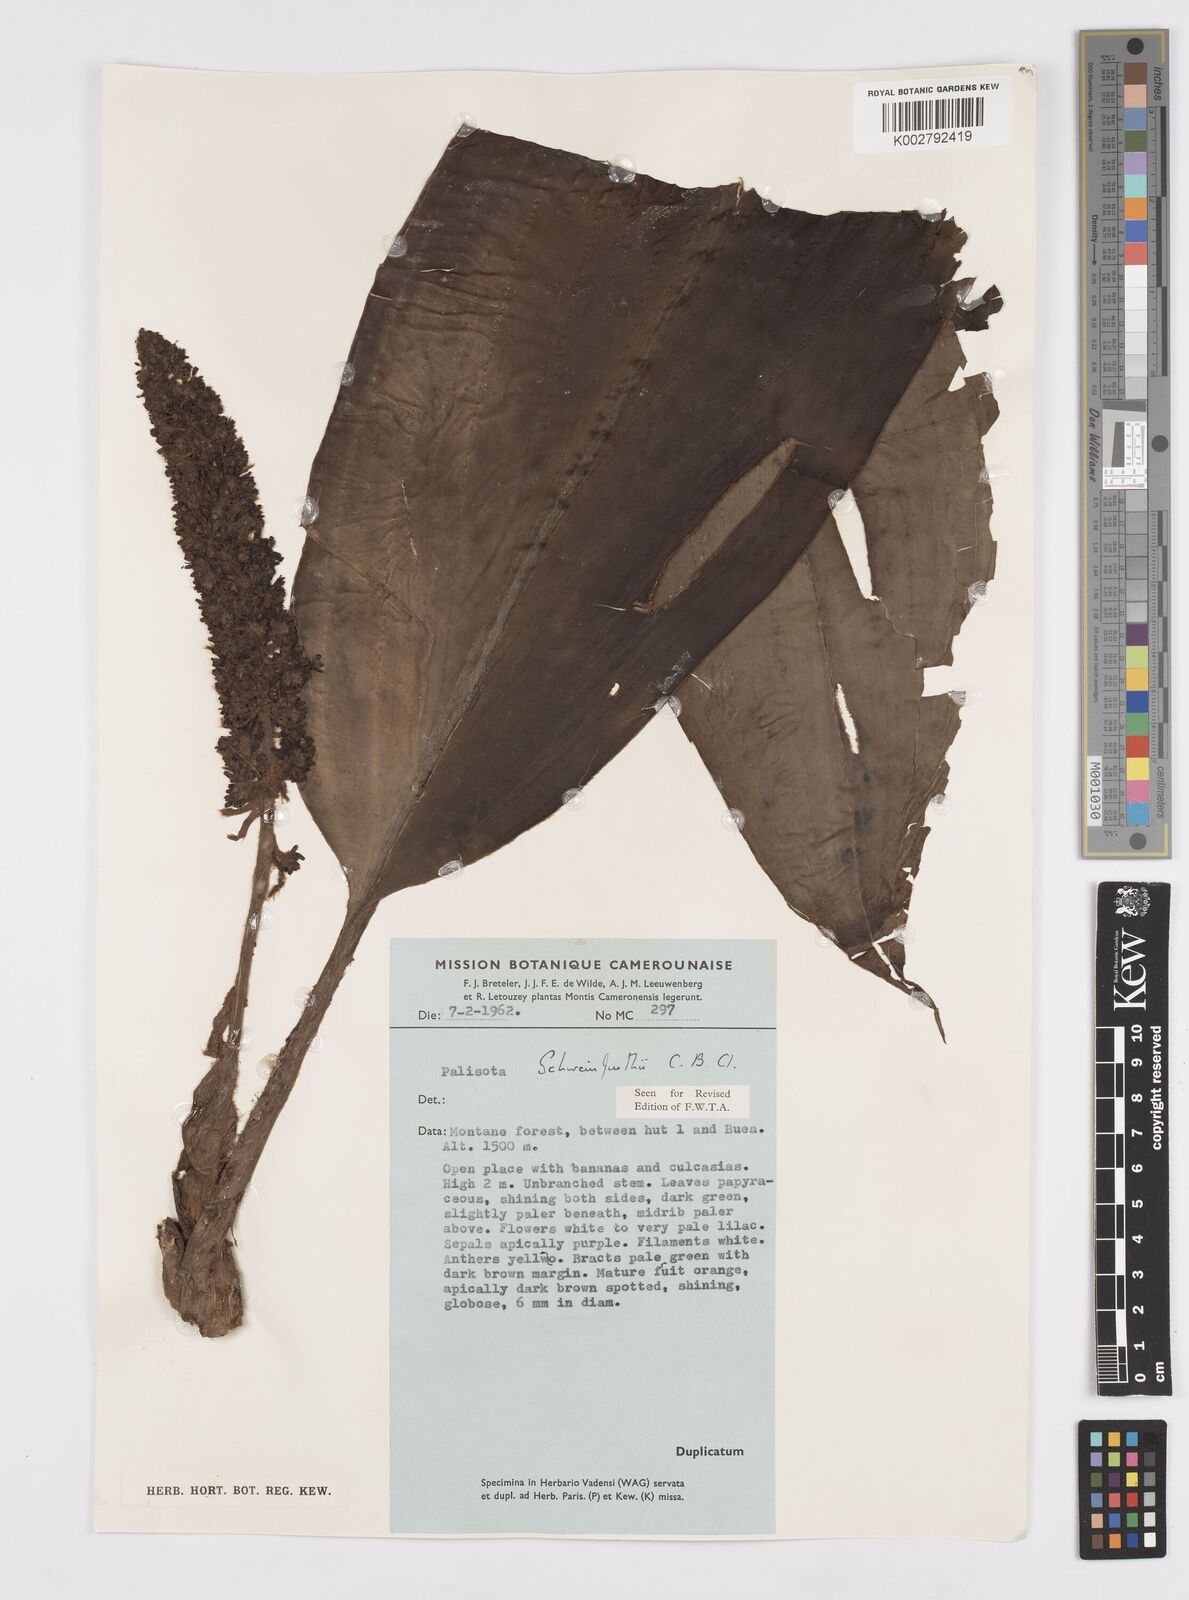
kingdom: Plantae
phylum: Tracheophyta
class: Liliopsida
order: Commelinales
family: Commelinaceae
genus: Palisota
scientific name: Palisota schweinfurthii
